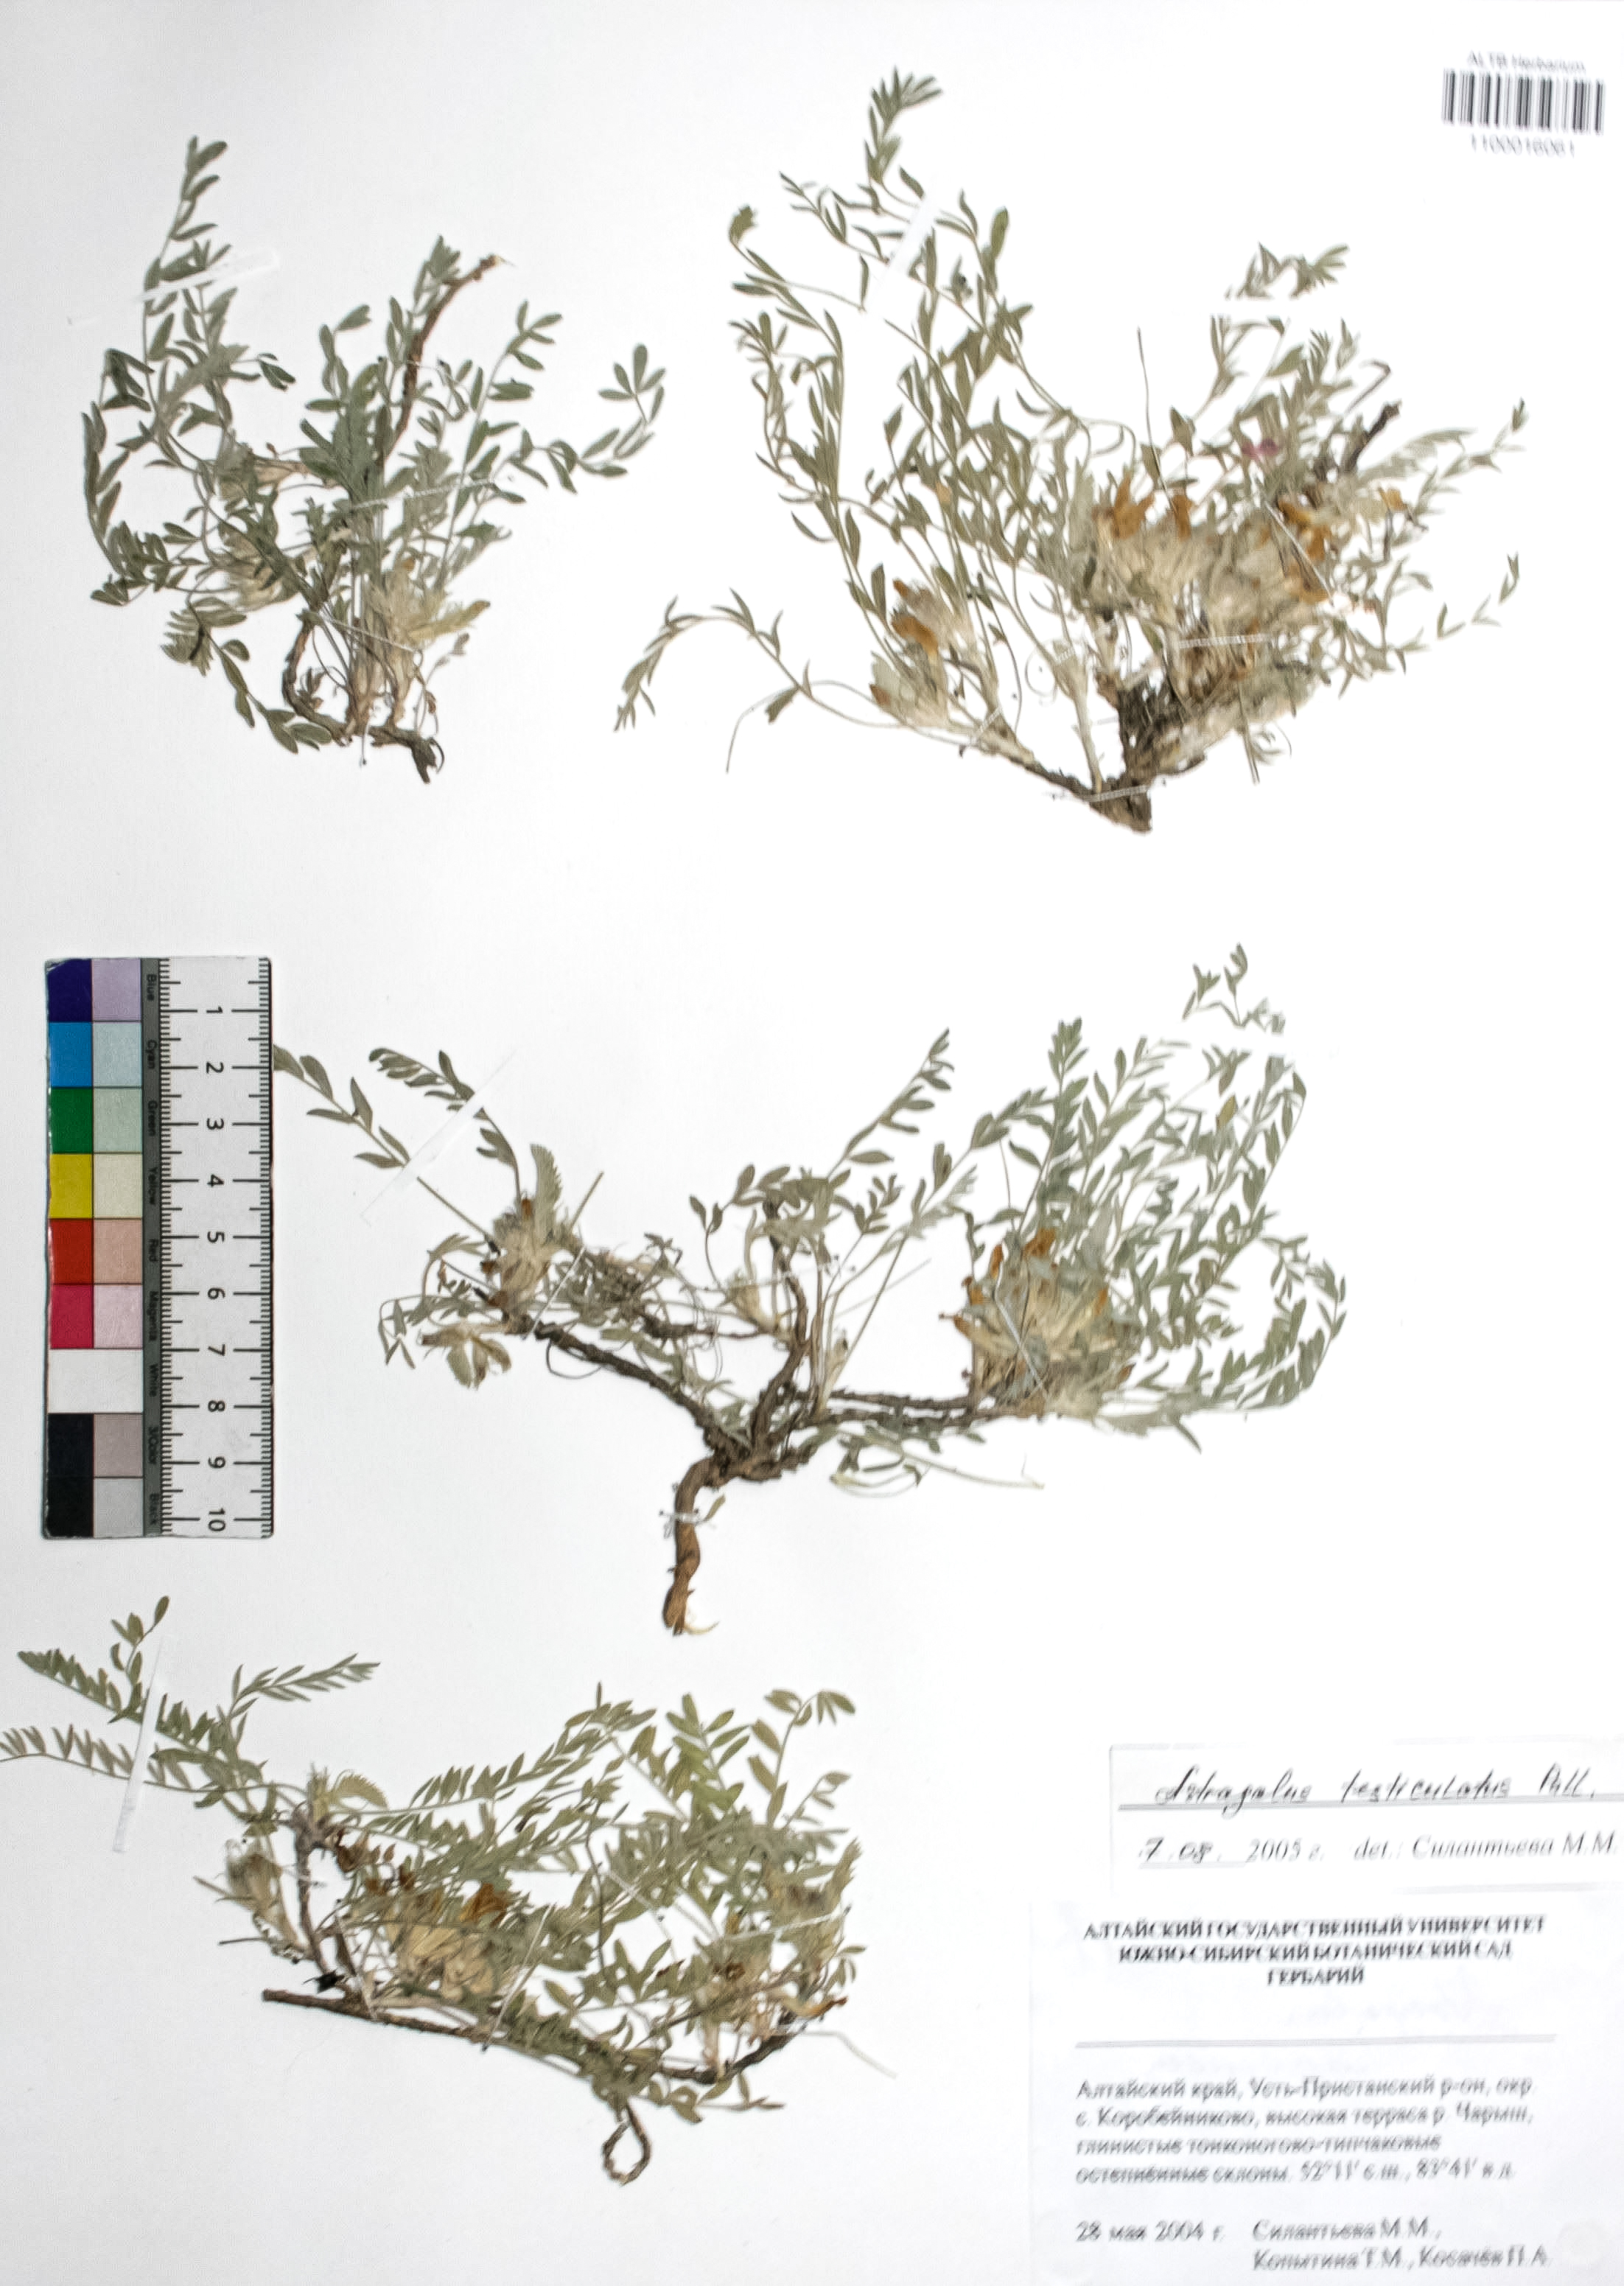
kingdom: Plantae
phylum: Tracheophyta
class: Magnoliopsida
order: Fabales
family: Fabaceae
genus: Astragalus
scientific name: Astragalus testiculatus
